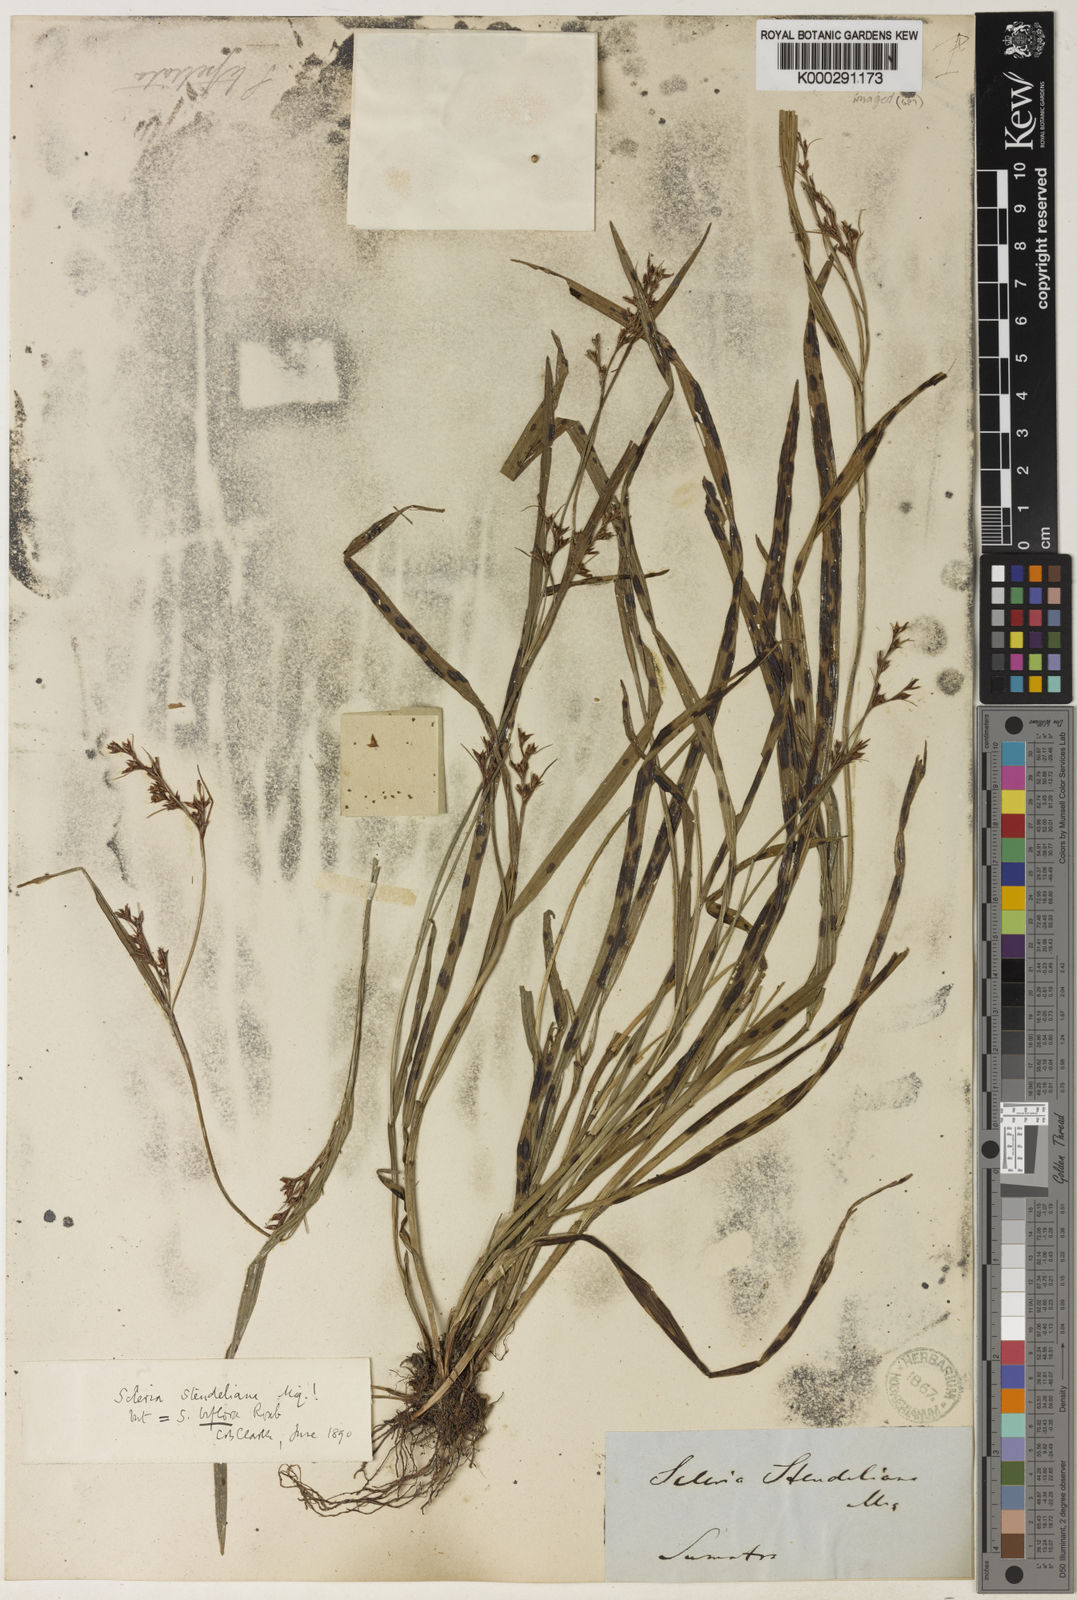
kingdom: Plantae
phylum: Tracheophyta
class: Liliopsida
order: Poales
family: Cyperaceae
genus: Scleria
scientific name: Scleria biflora
